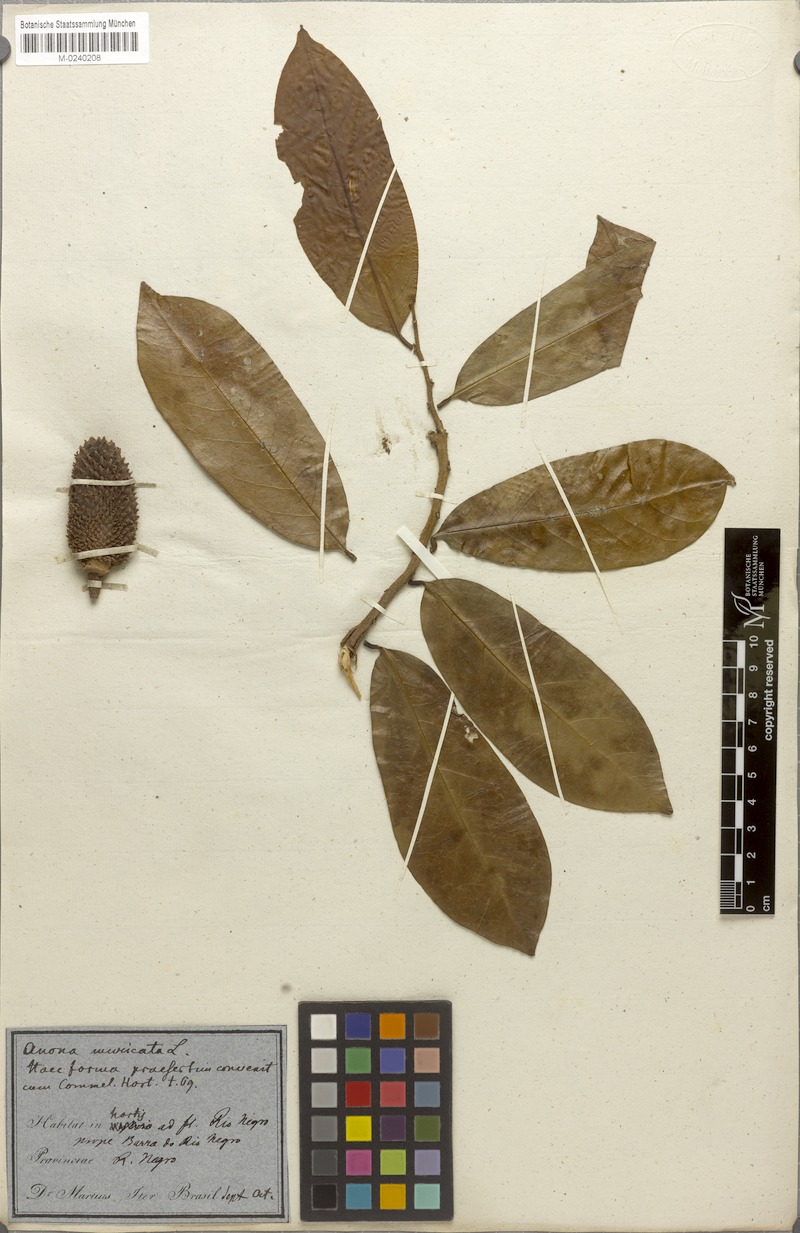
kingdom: Plantae
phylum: Tracheophyta
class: Magnoliopsida
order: Magnoliales
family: Annonaceae
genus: Annona
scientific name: Annona muricata
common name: Soursop
